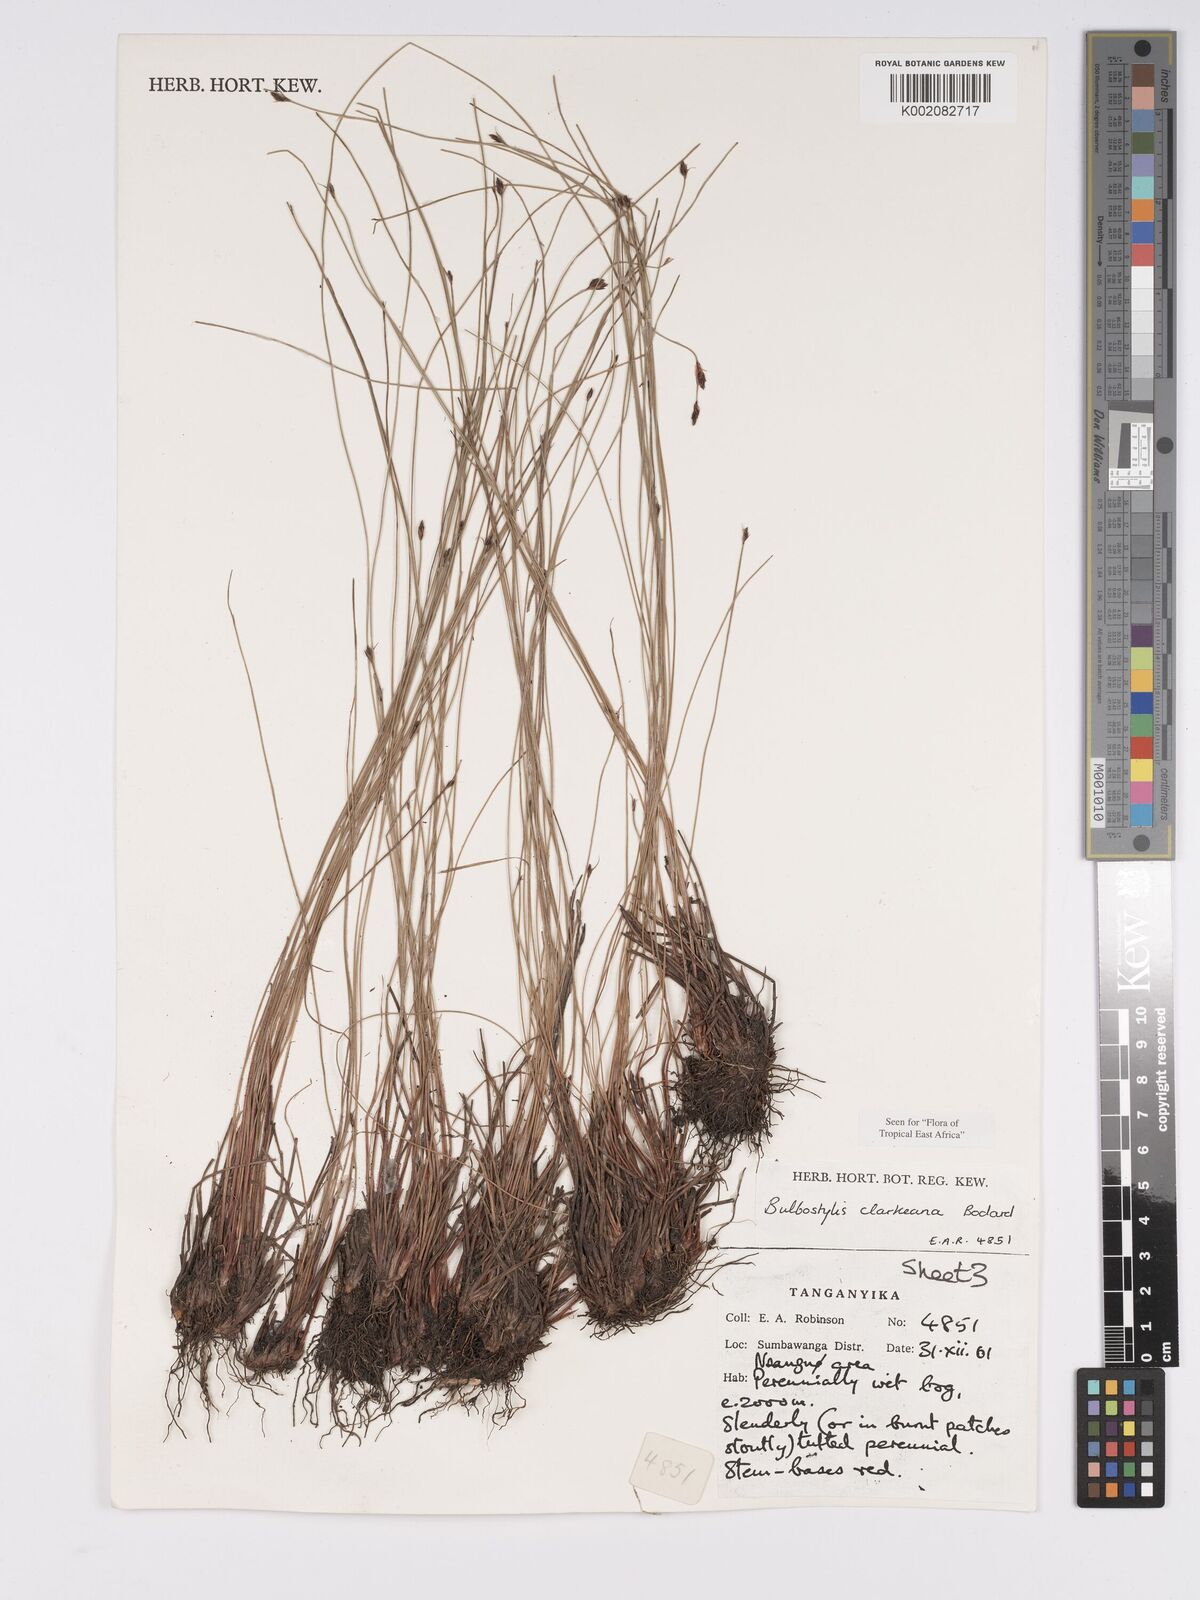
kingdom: Plantae
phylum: Tracheophyta
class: Liliopsida
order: Poales
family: Cyperaceae
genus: Bulbostylis
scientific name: Bulbostylis clarkeana
